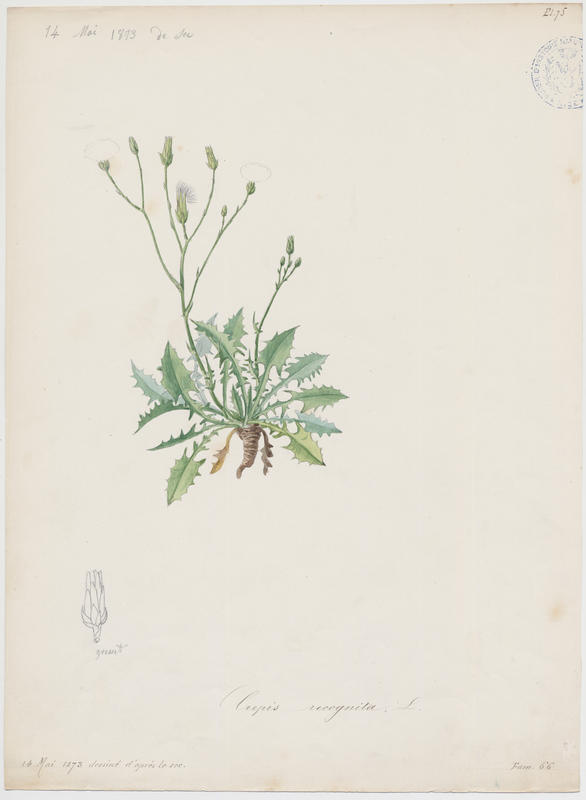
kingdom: Plantae
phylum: Tracheophyta
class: Magnoliopsida
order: Asterales
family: Asteraceae
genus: Crepis
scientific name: Crepis vesicaria
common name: Beaked hawksbeard
